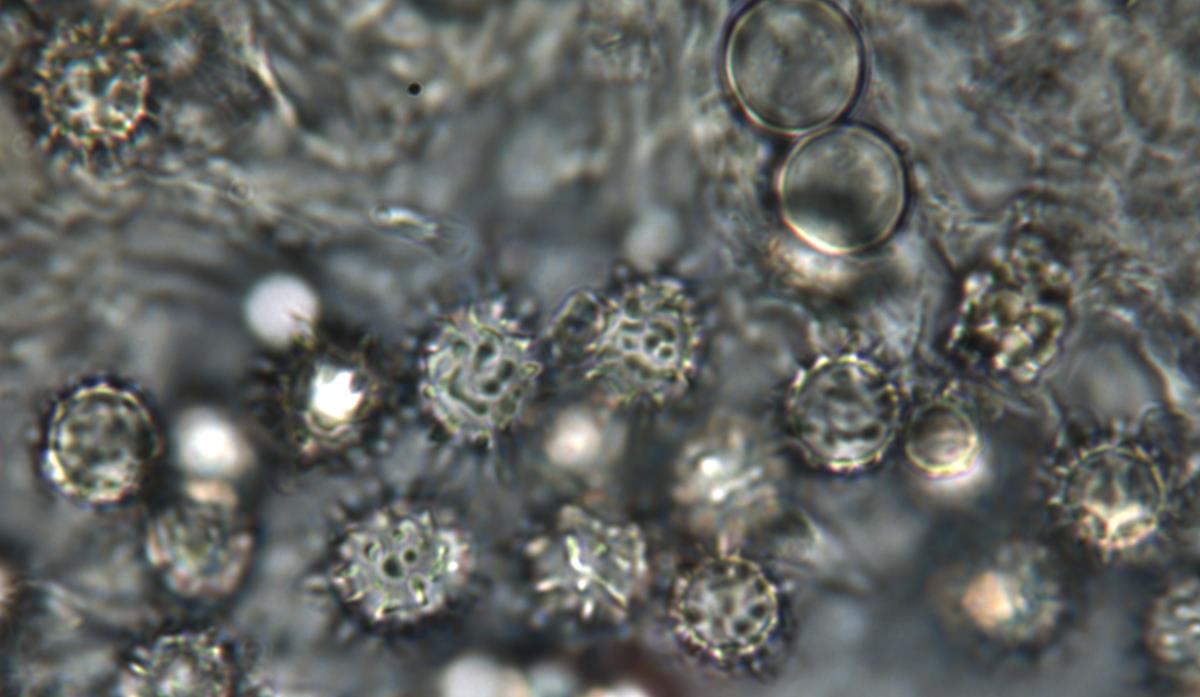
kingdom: Fungi
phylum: Basidiomycota
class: Agaricomycetes
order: Agaricales
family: Stephanosporaceae
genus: Stephanospora
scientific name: Stephanospora kanuka
